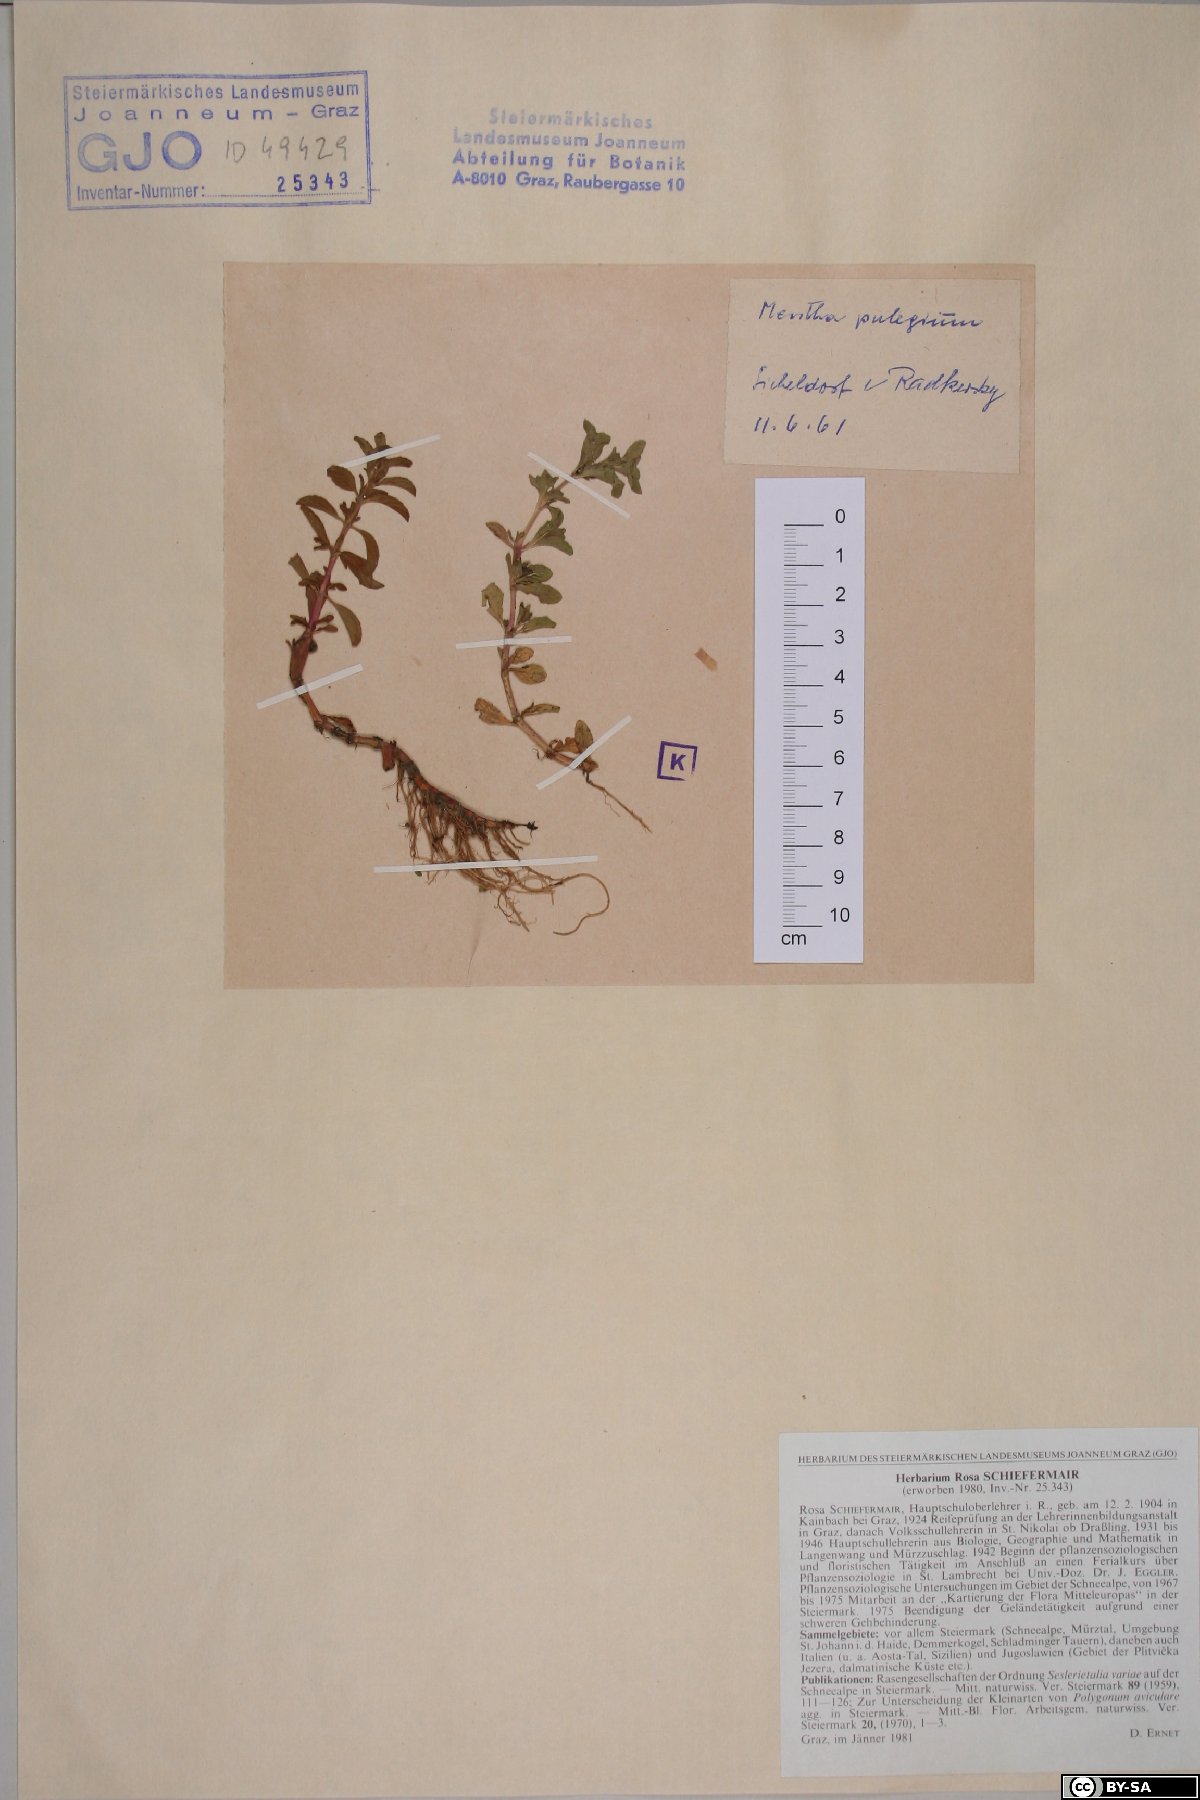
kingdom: Plantae
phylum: Tracheophyta
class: Magnoliopsida
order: Lamiales
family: Lamiaceae
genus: Mentha
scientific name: Mentha pulegium
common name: Pennyroyal
